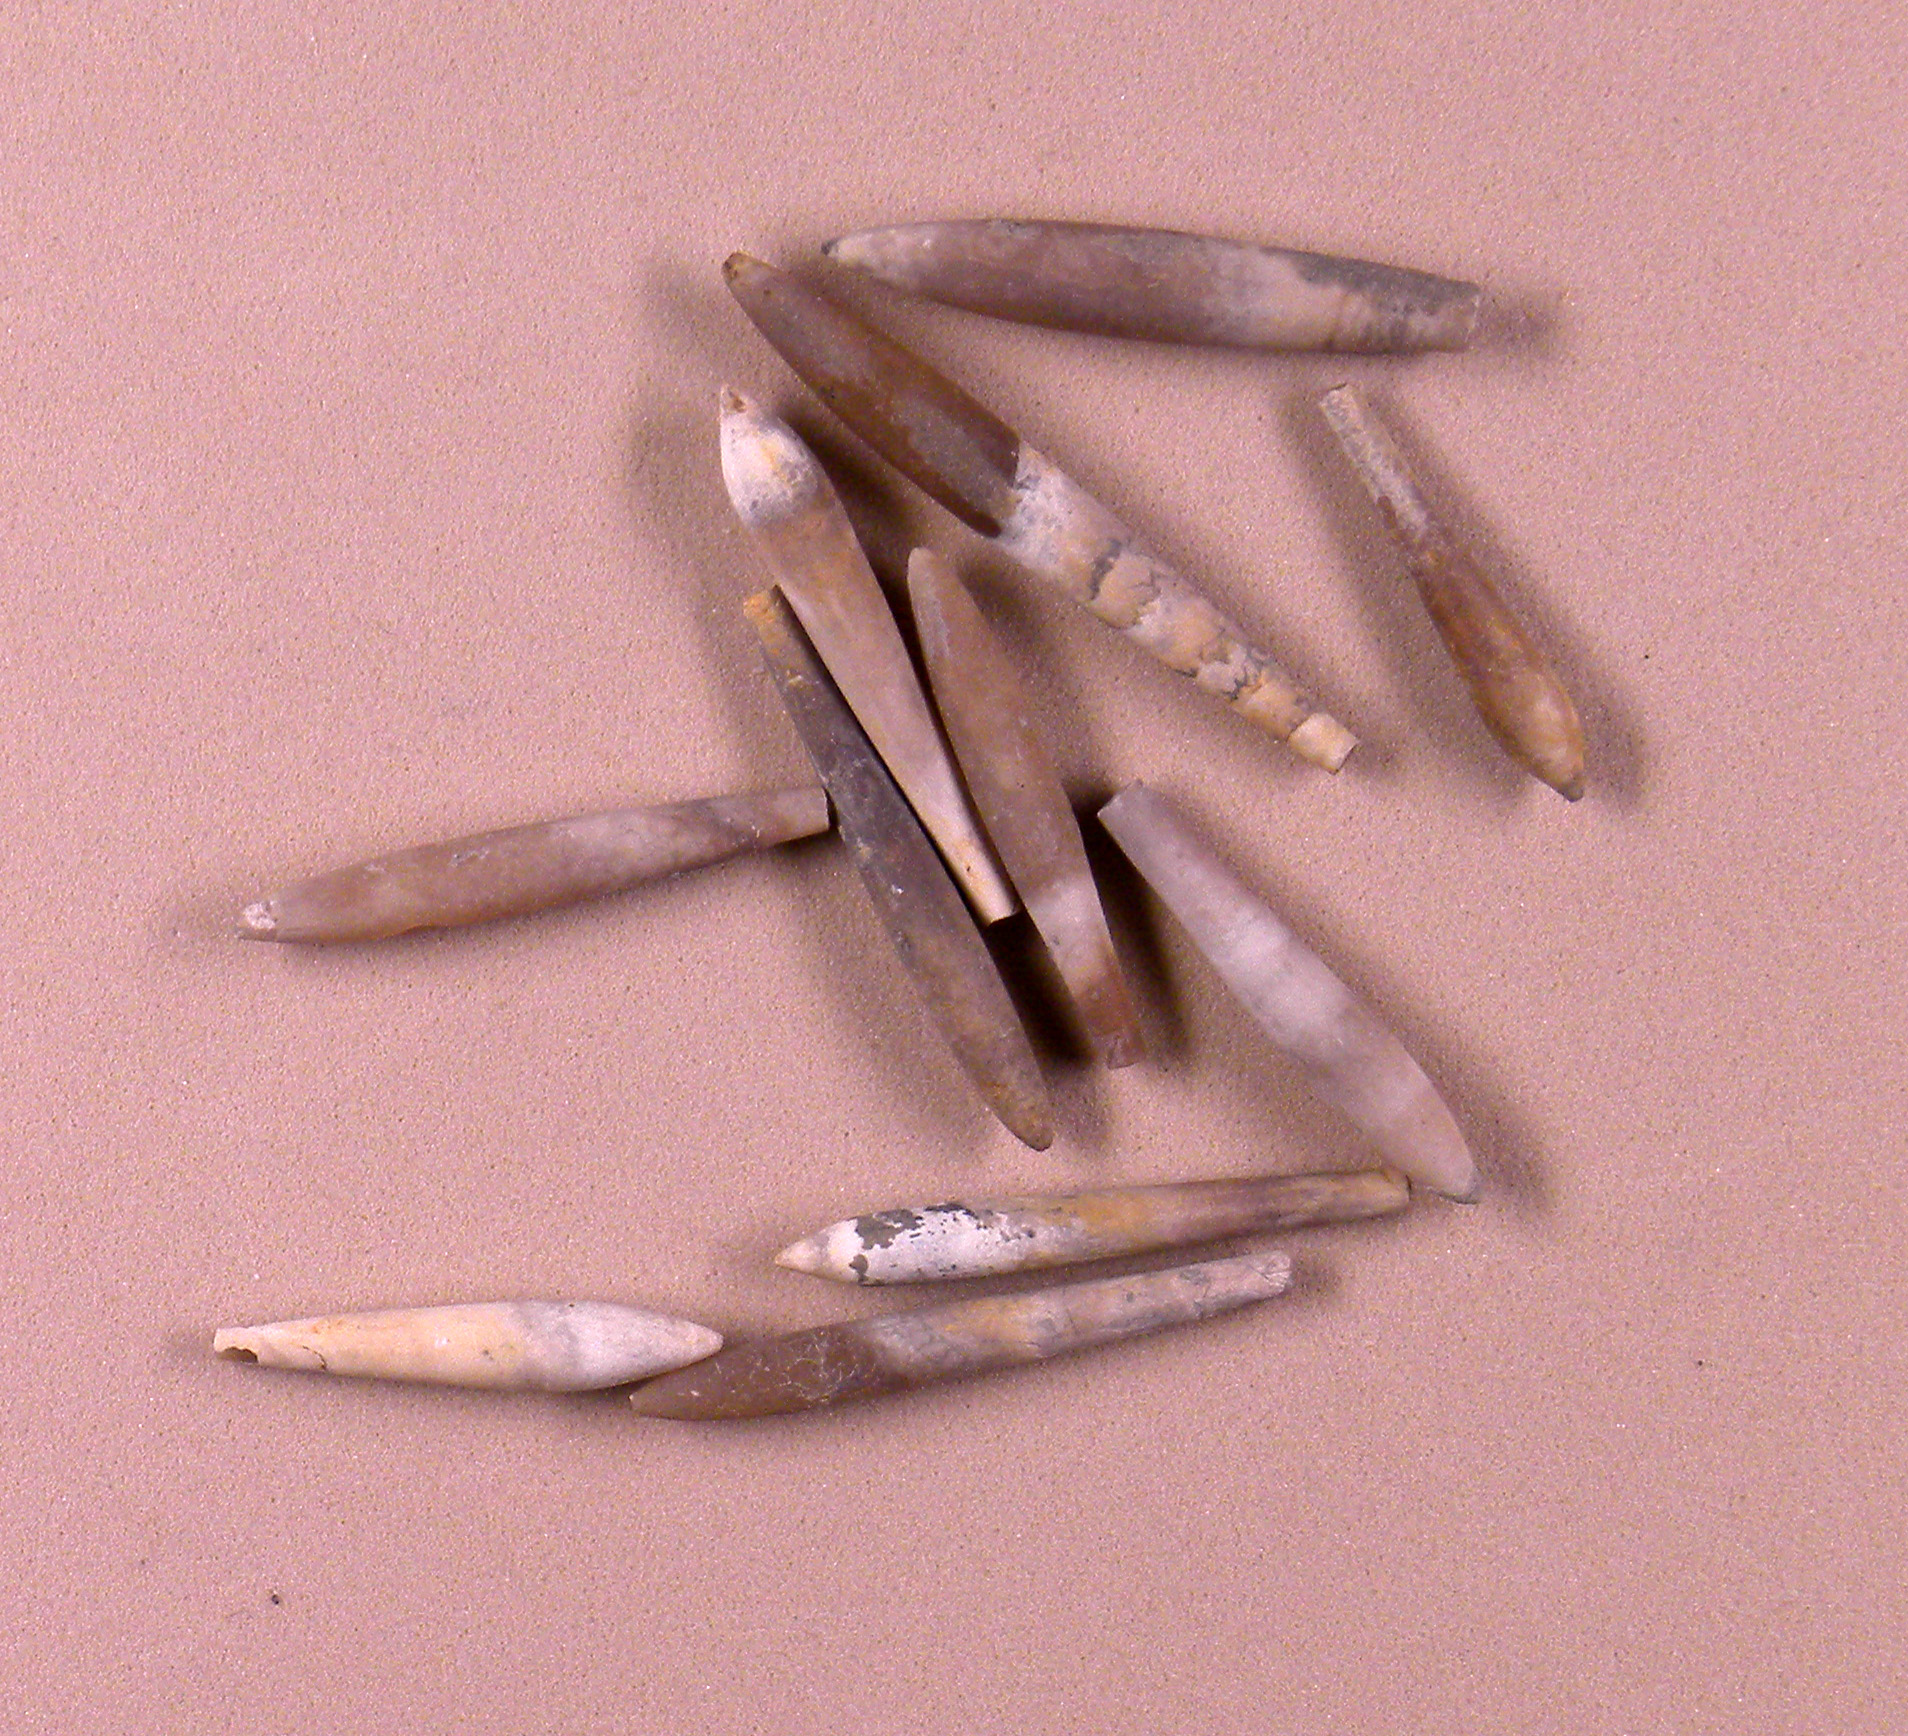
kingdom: Animalia
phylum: Mollusca
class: Cephalopoda
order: Belemnitida
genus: Subhastites
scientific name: Subhastites pseudoclavatus
